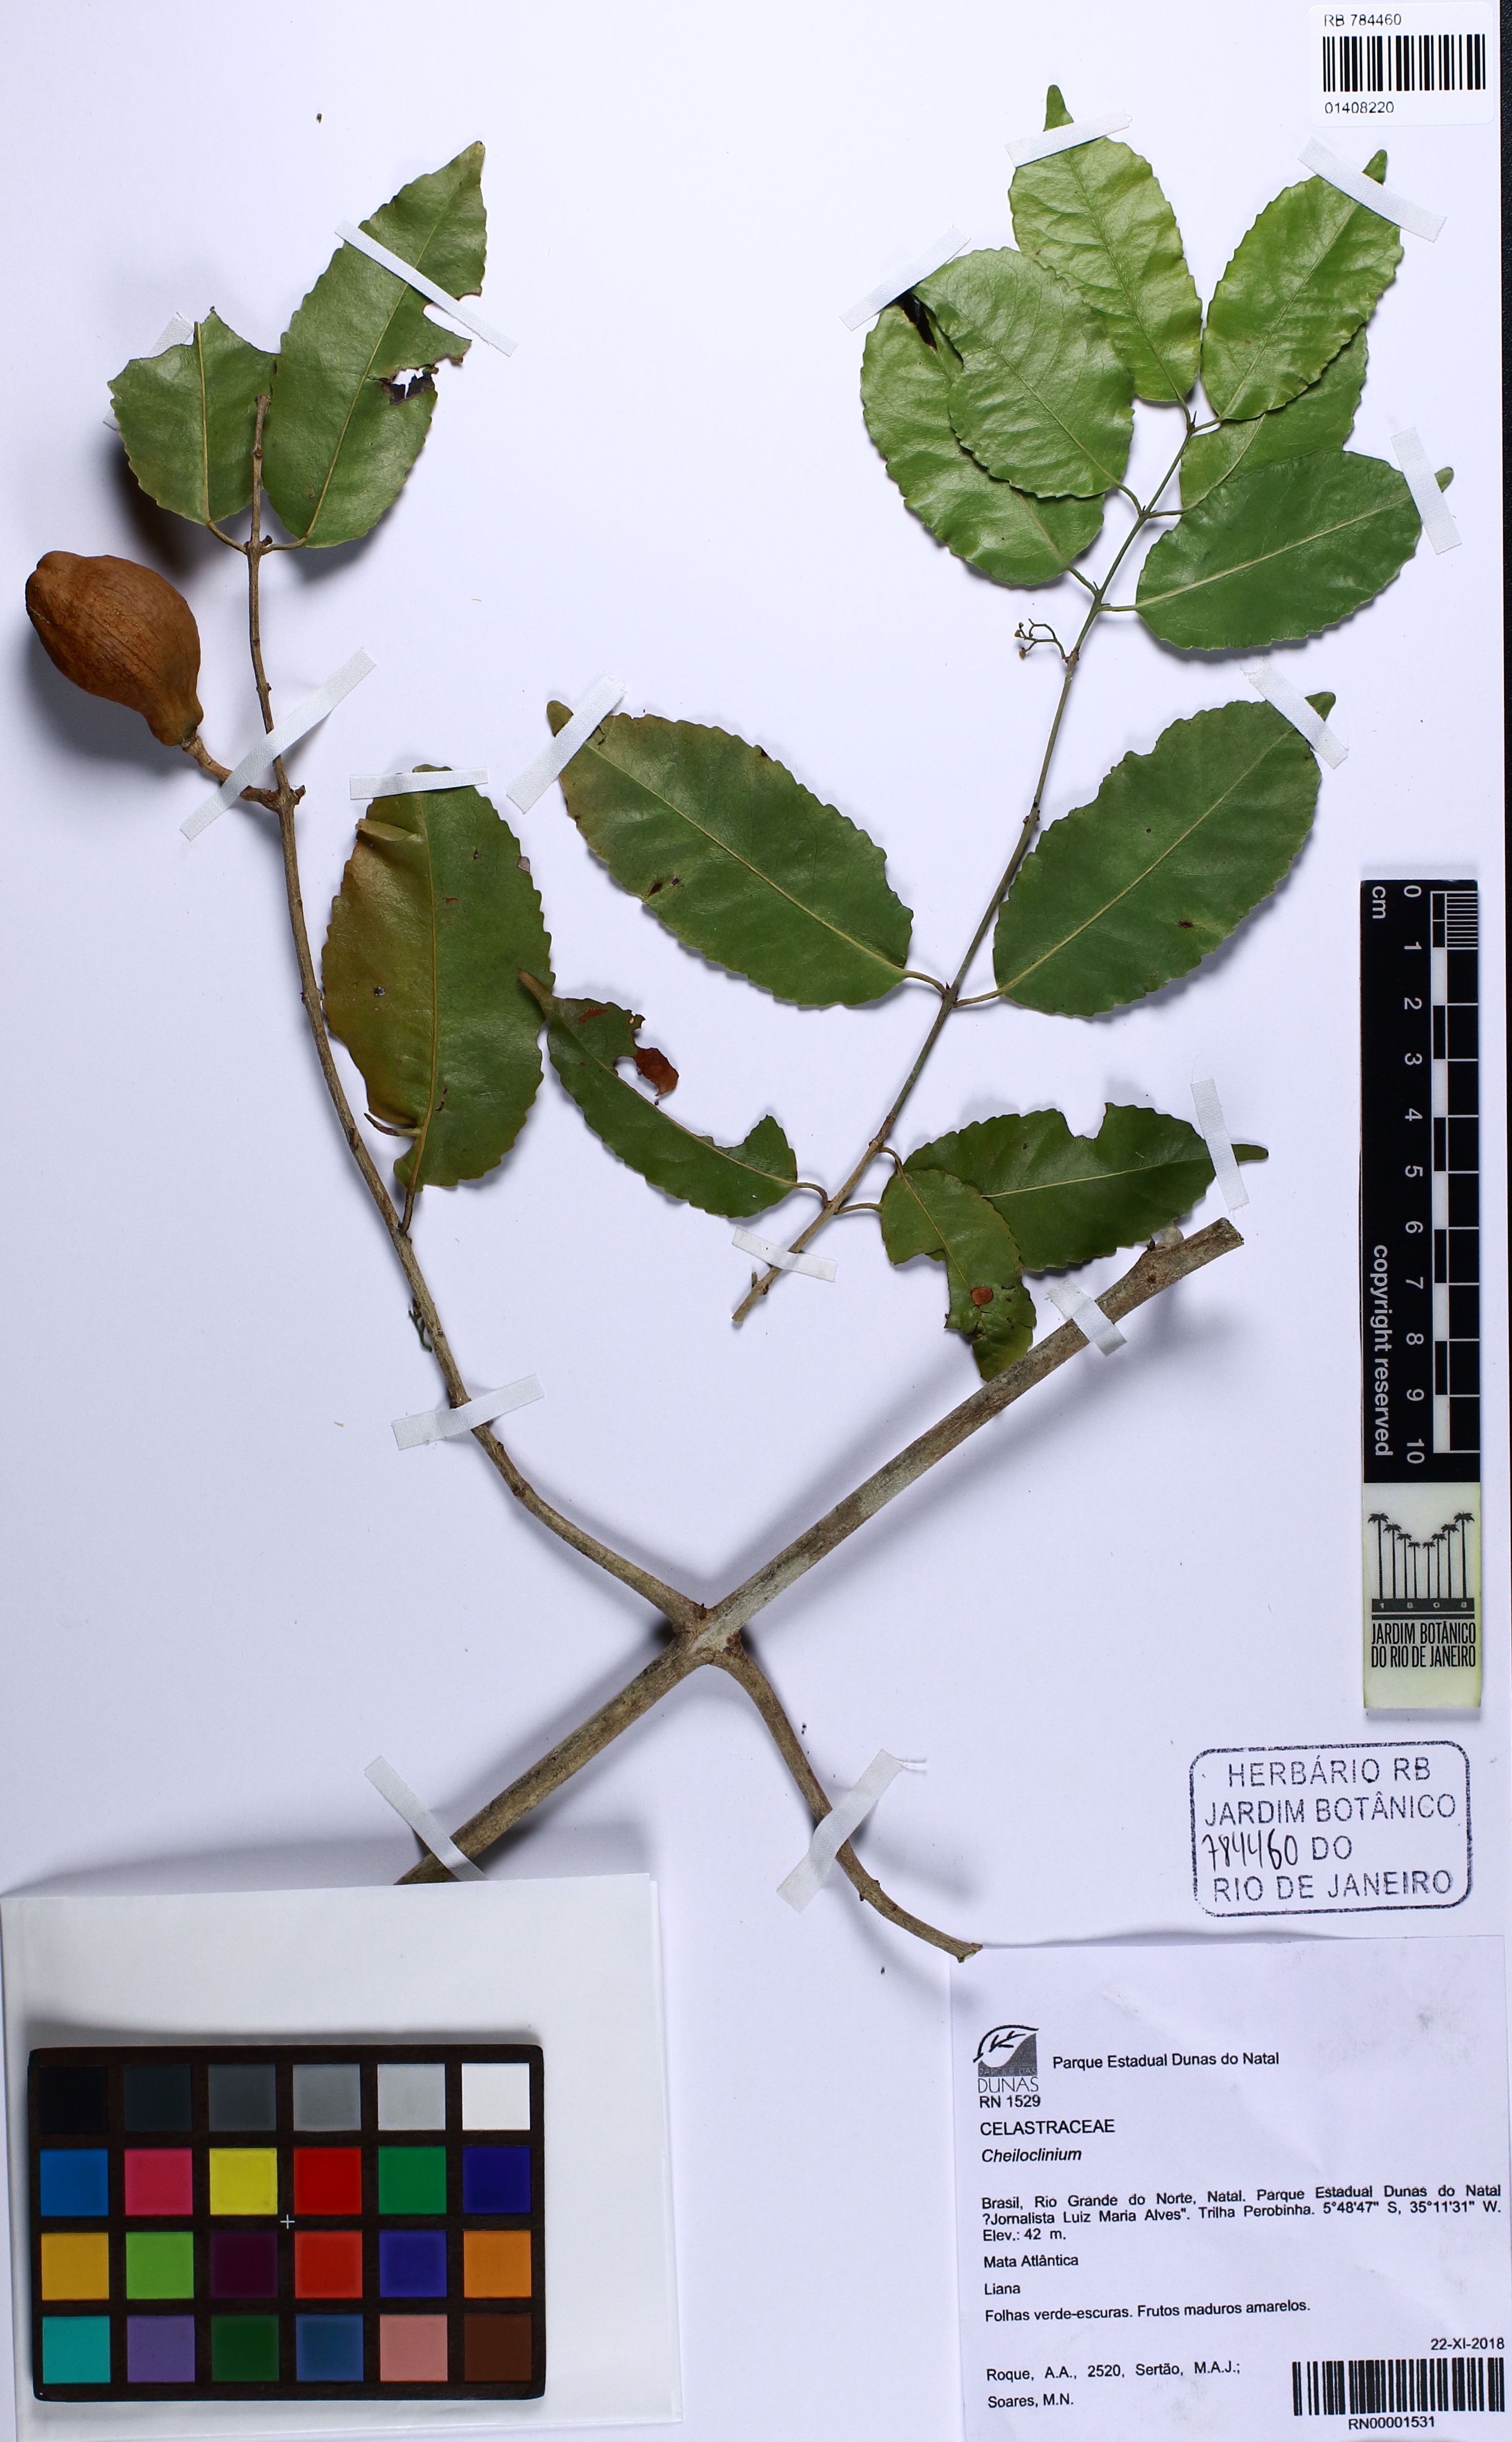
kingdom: Plantae
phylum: Tracheophyta
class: Magnoliopsida
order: Celastrales
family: Celastraceae
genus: Cheiloclinium
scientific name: Cheiloclinium
